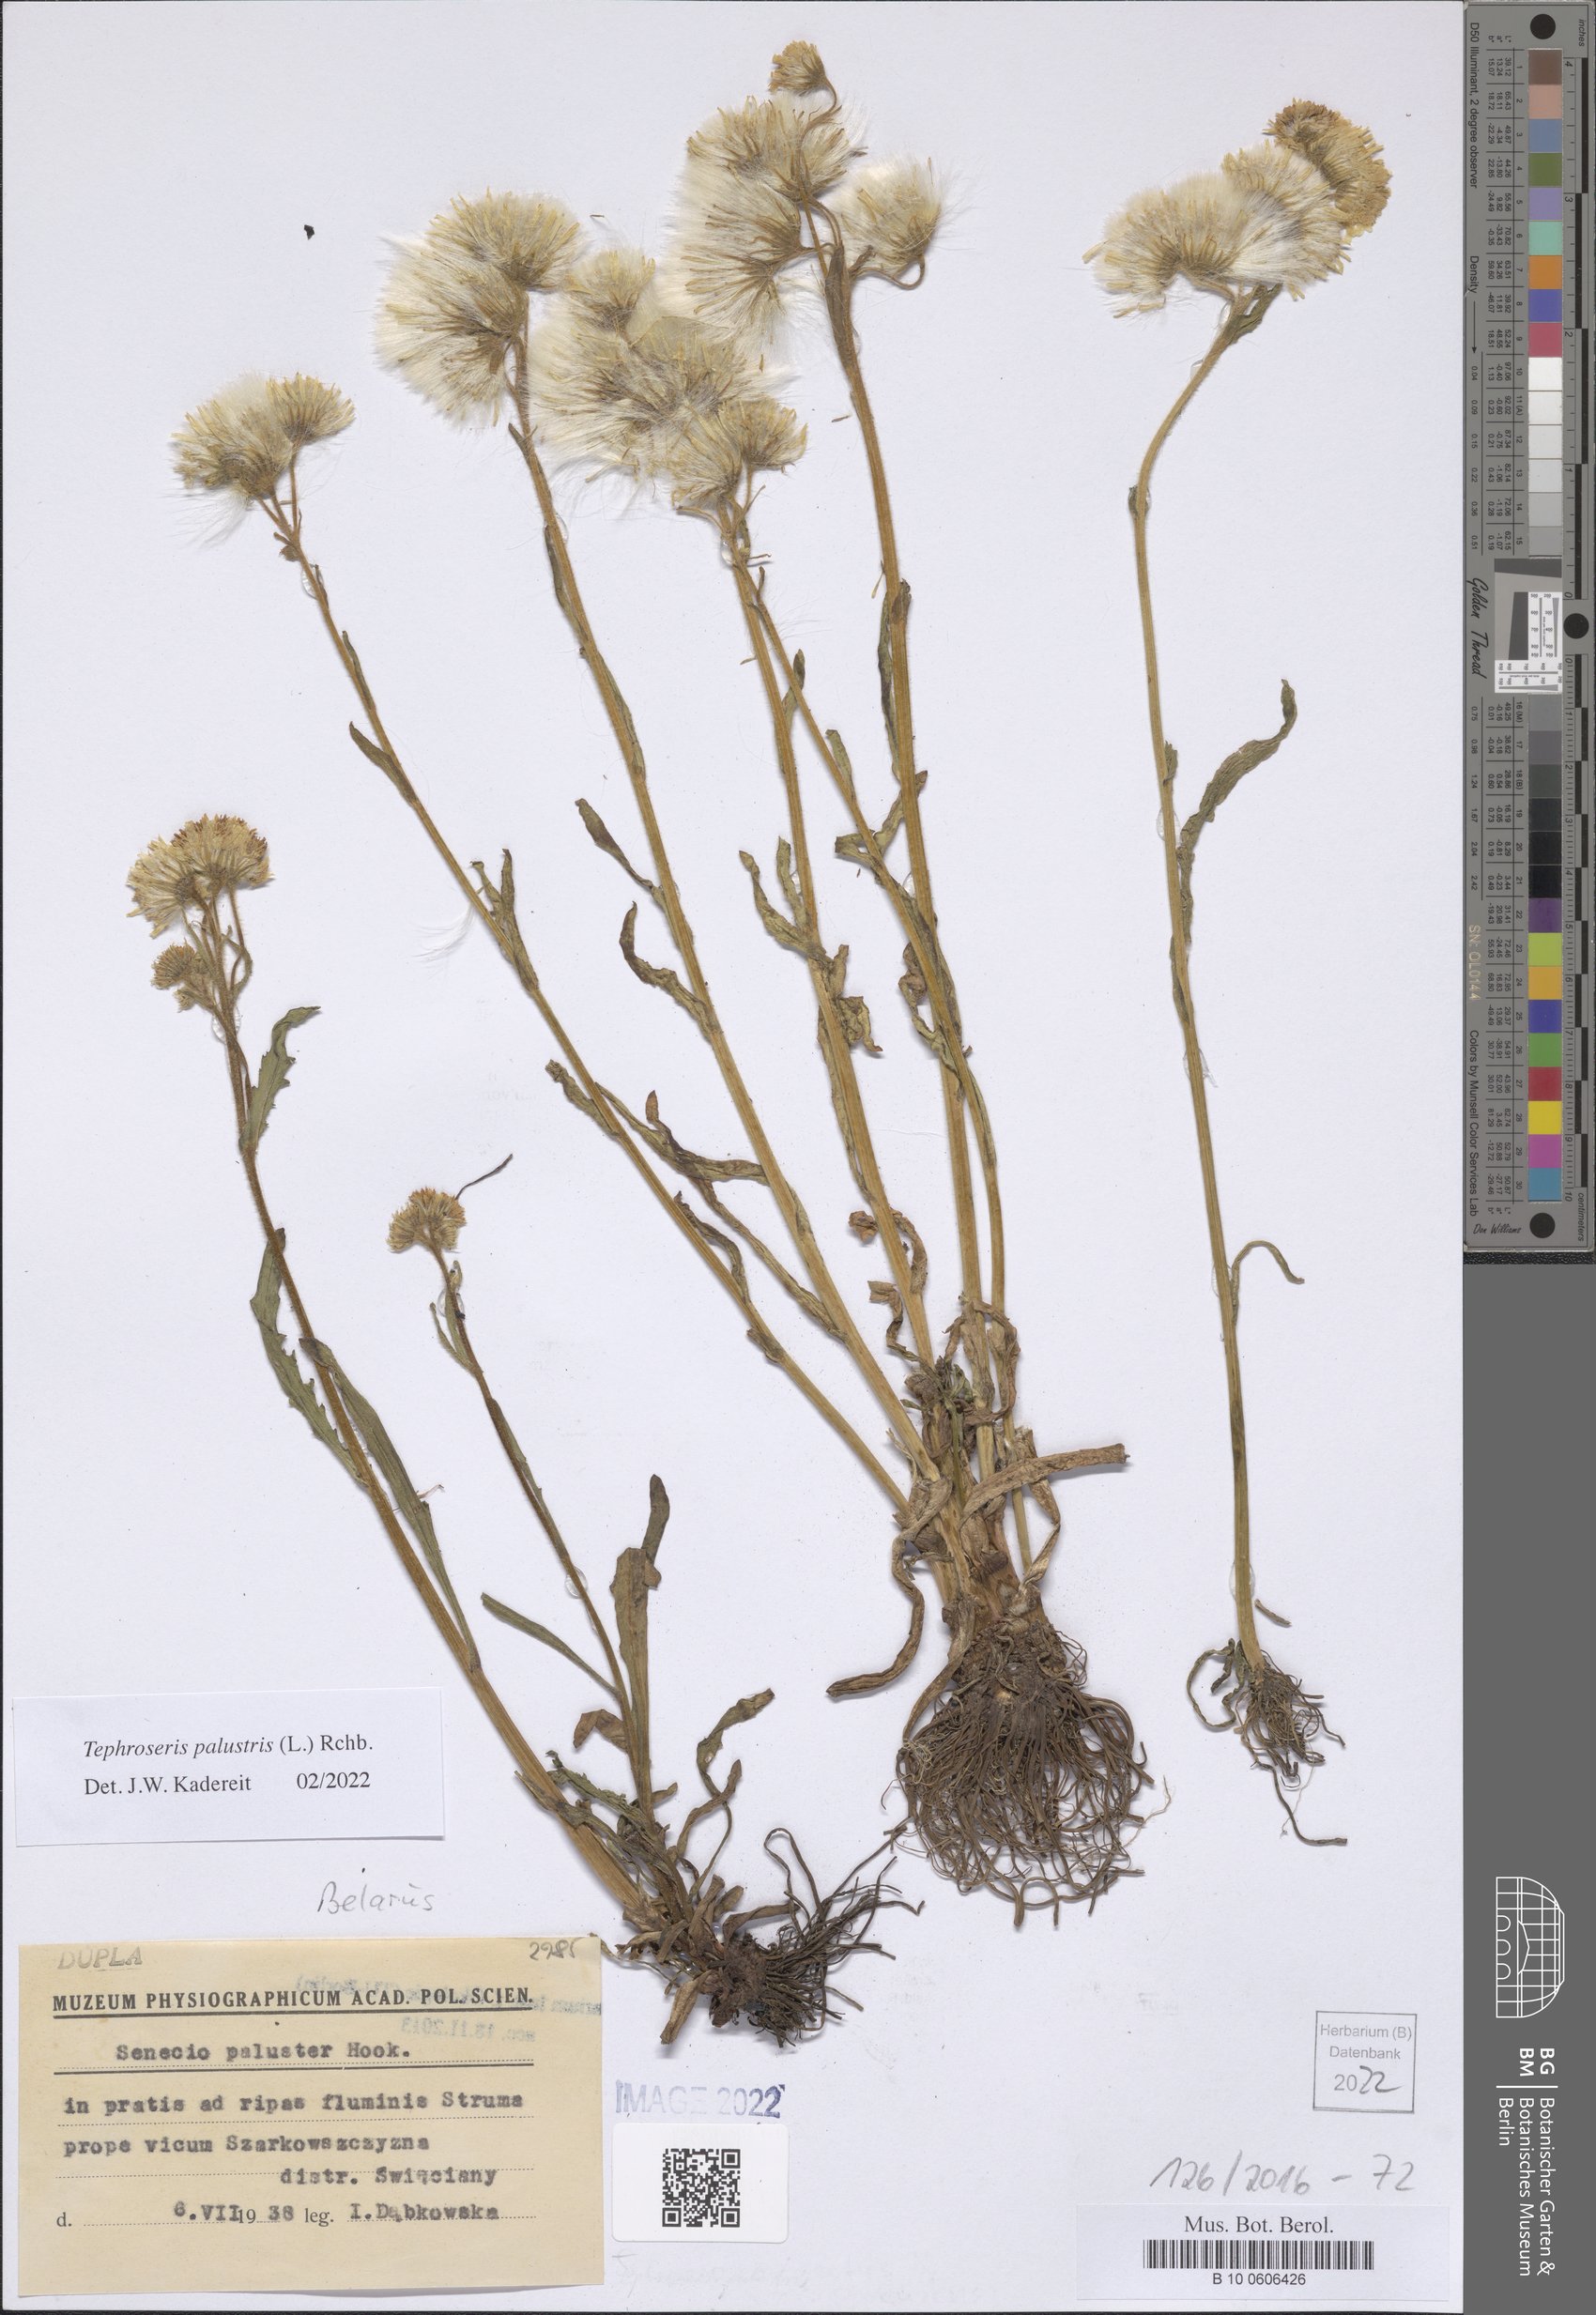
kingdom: Plantae
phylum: Tracheophyta
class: Magnoliopsida
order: Asterales
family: Asteraceae
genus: Tephroseris
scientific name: Tephroseris palustris
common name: Marsh fleawort
